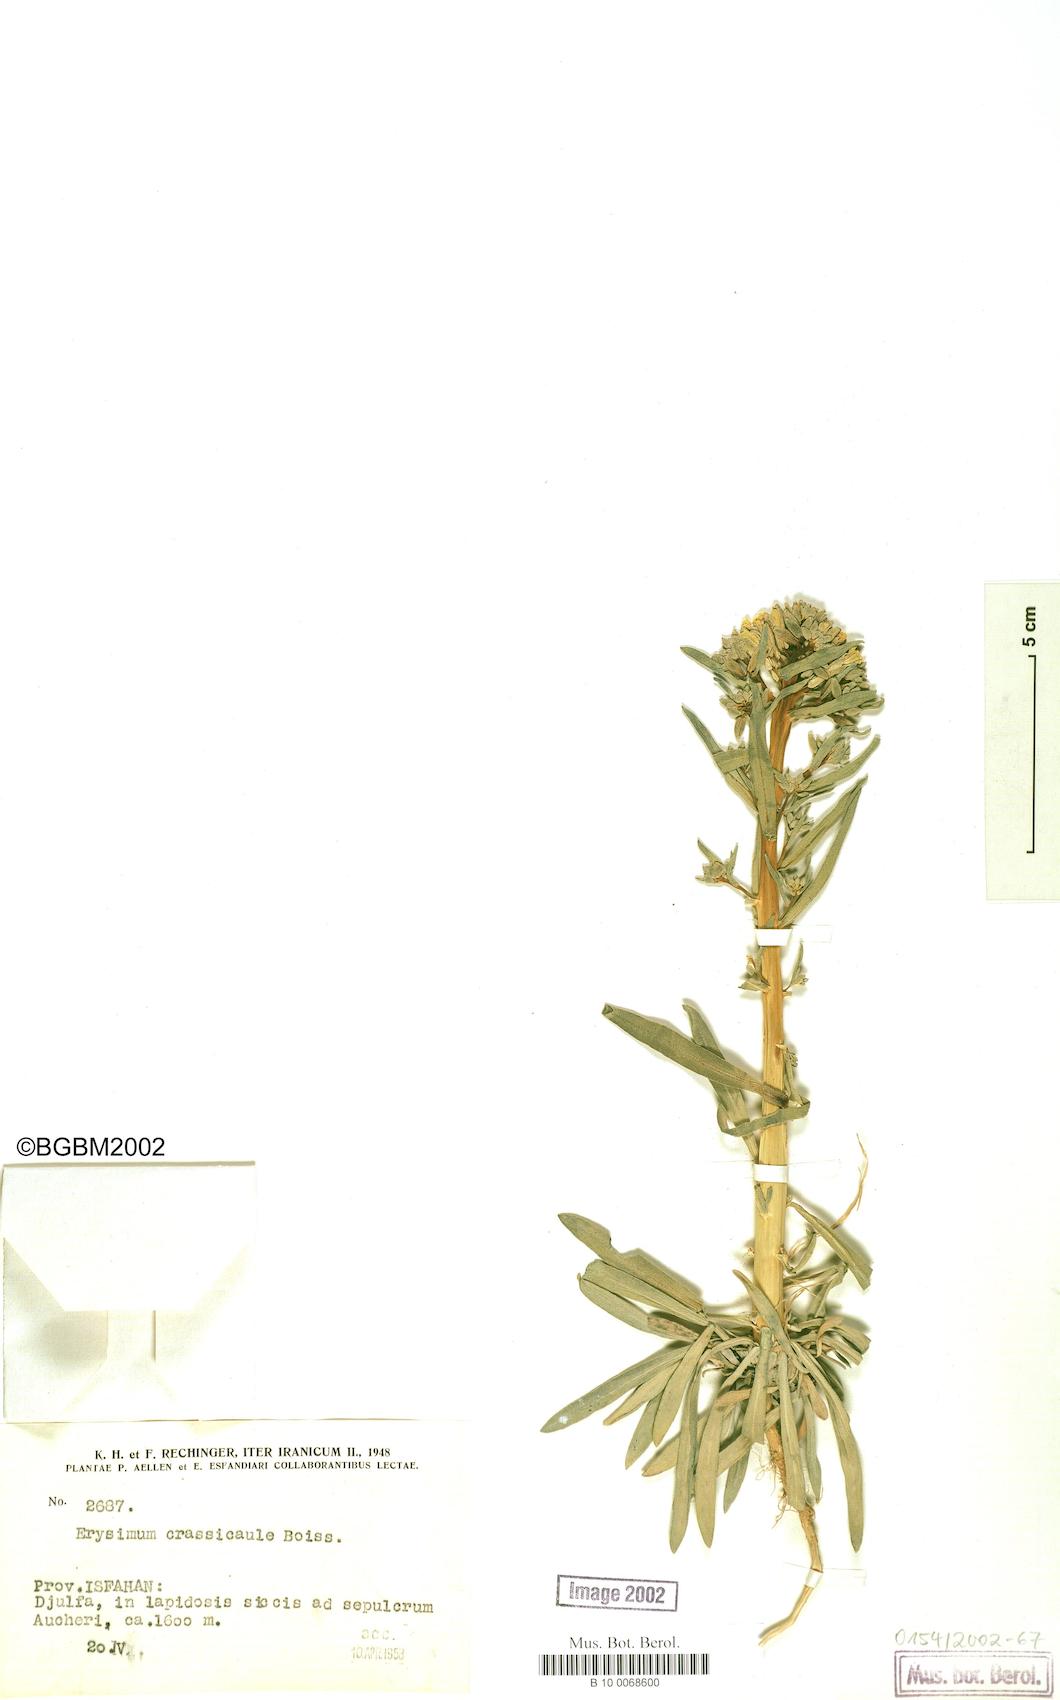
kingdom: Plantae
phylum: Tracheophyta
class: Magnoliopsida
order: Brassicales
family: Brassicaceae
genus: Erysimum
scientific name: Erysimum crassicaule
